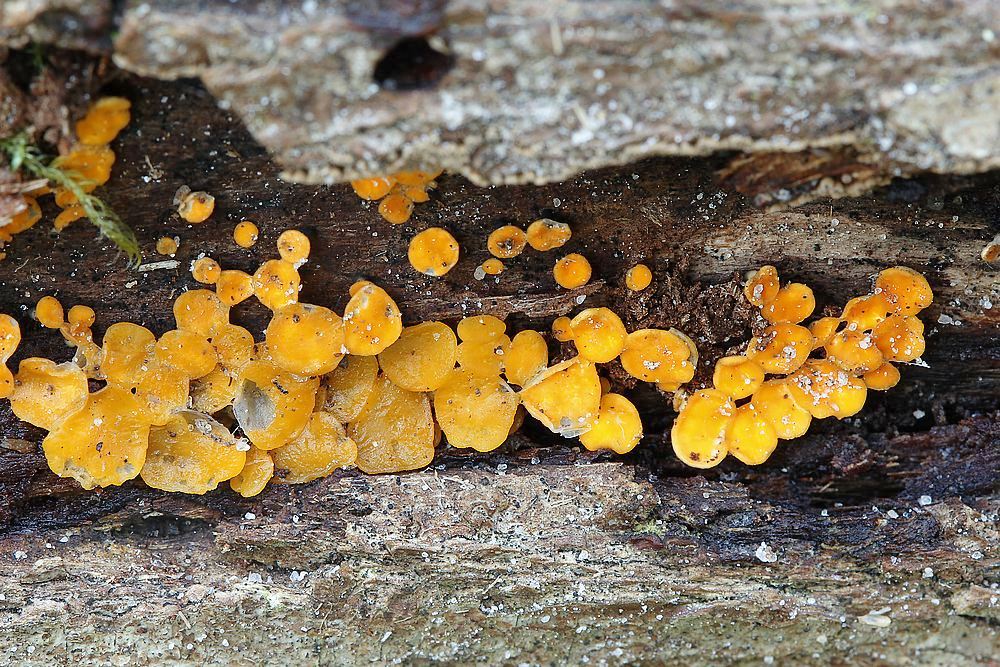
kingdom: Fungi
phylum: Ascomycota
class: Leotiomycetes
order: Helotiales
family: Helotiaceae
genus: Hymenoscyphus
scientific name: Hymenoscyphus
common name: stilkskive
